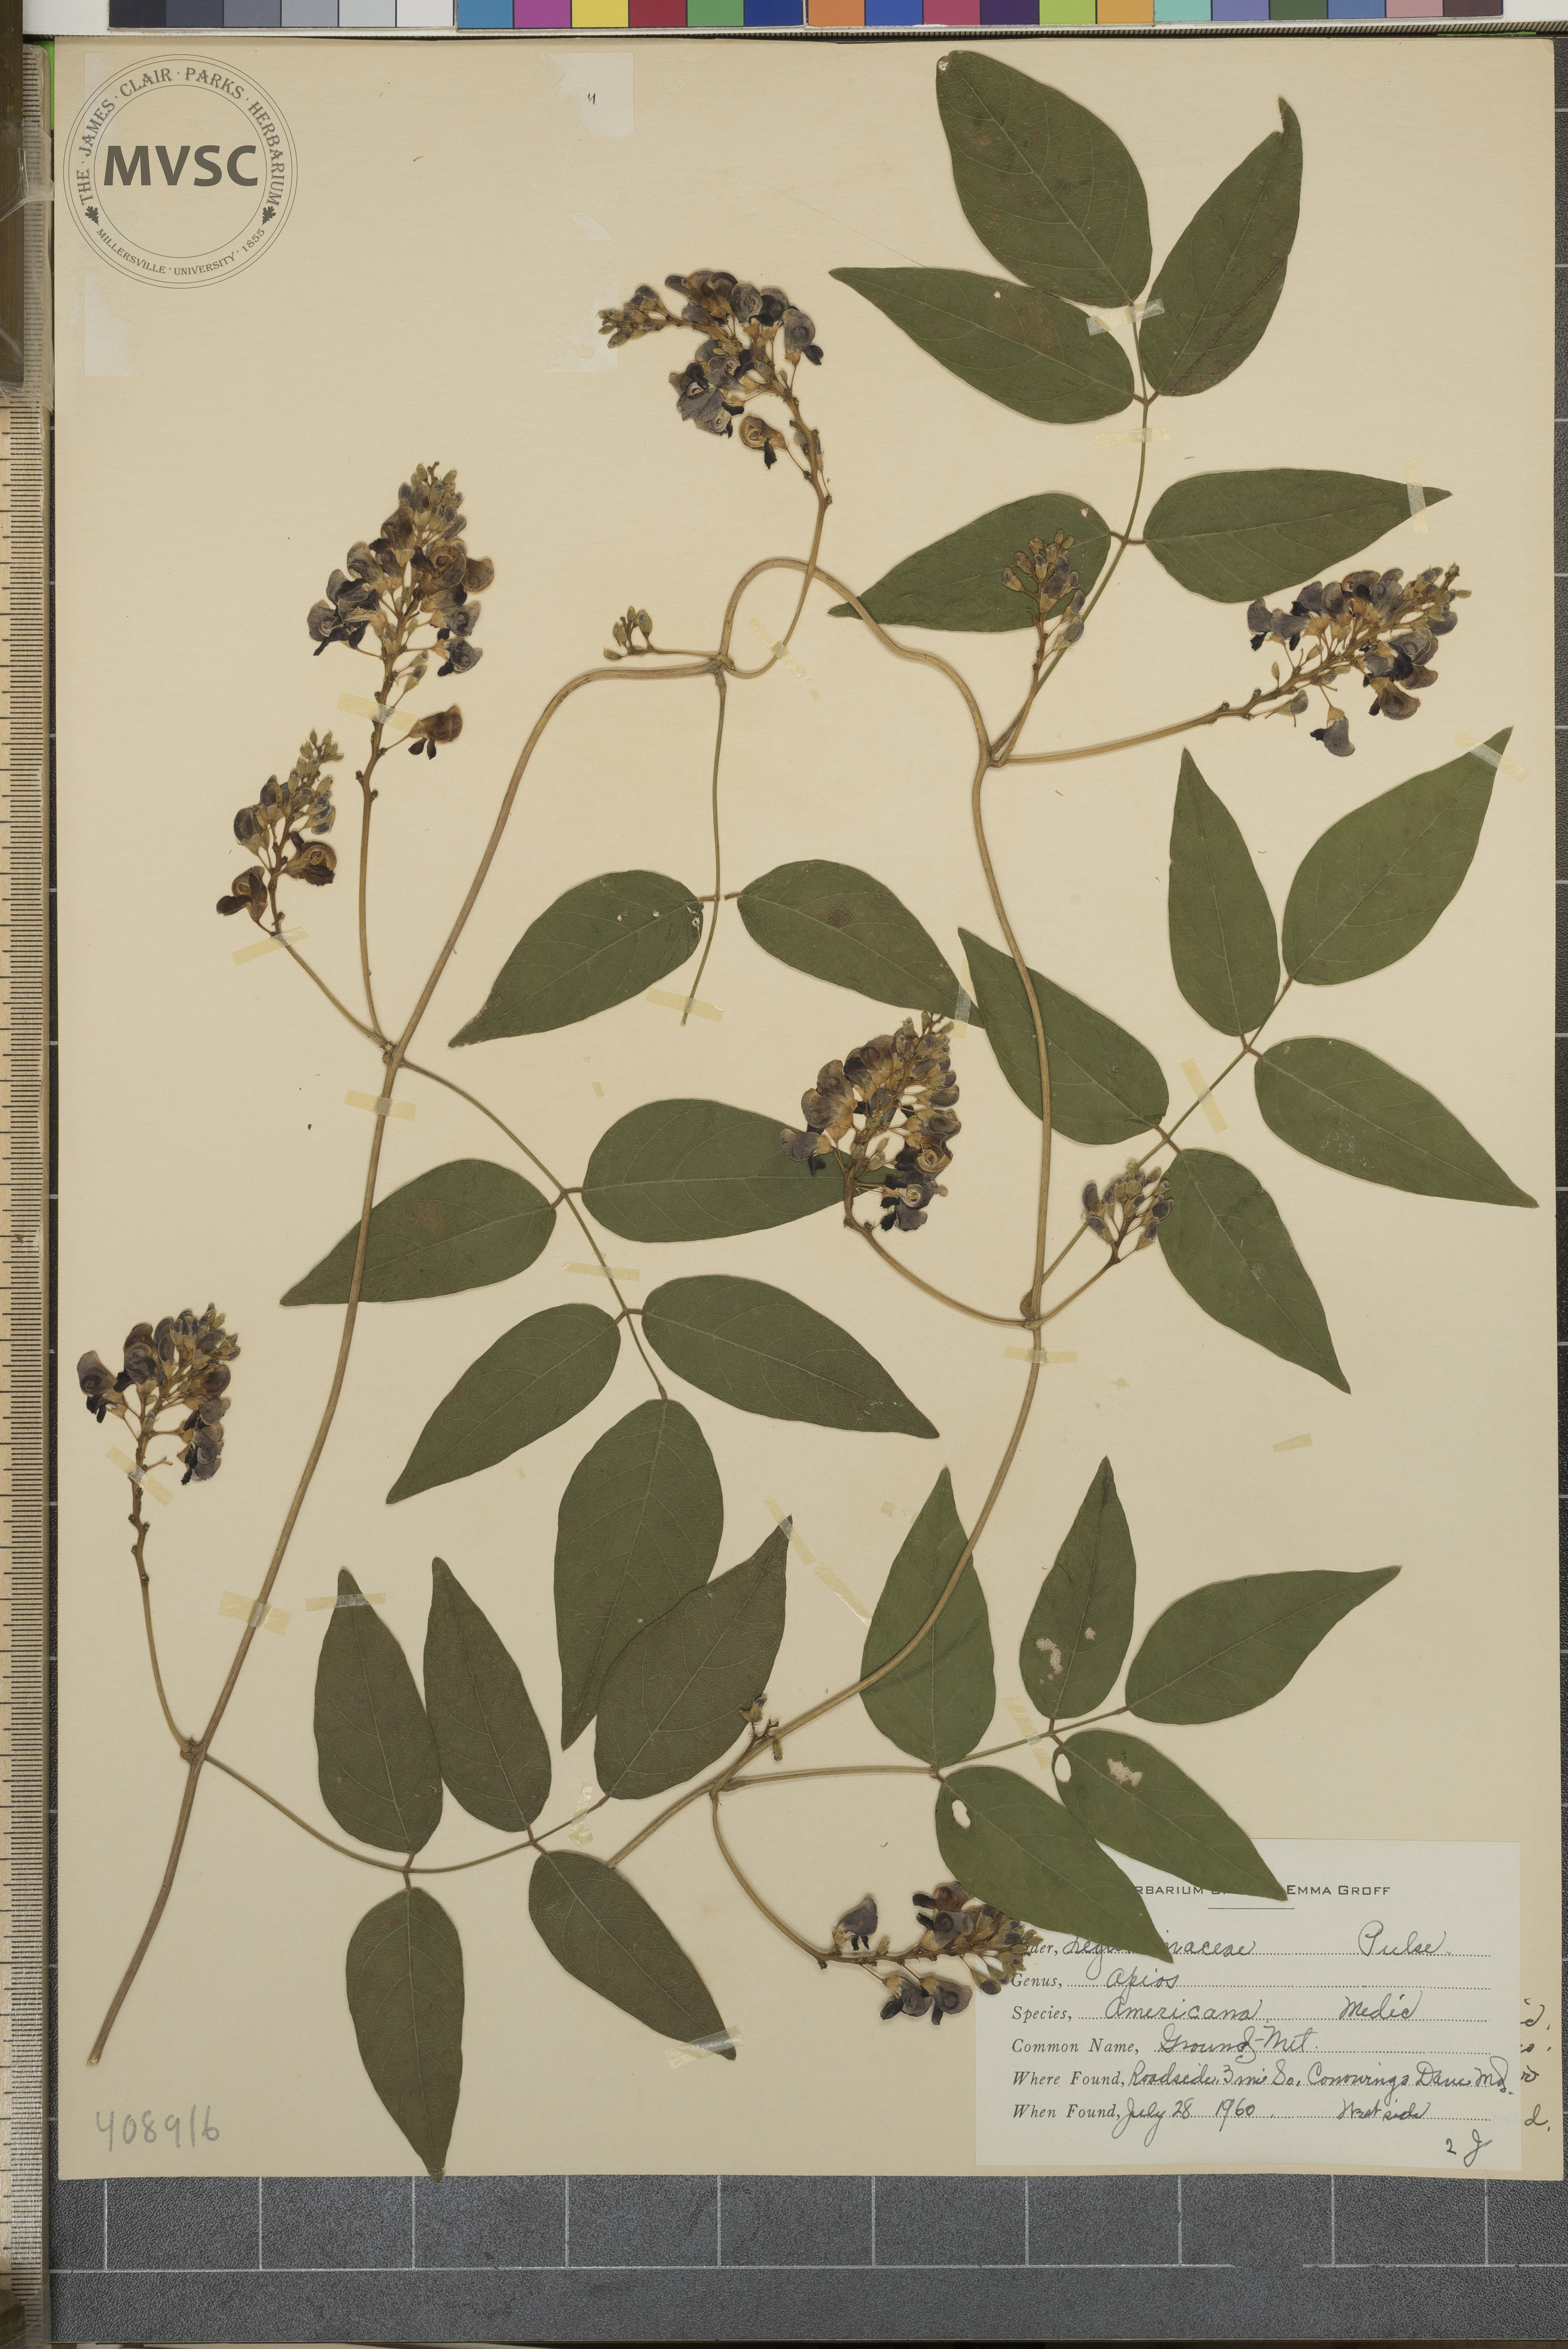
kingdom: Plantae
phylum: Tracheophyta
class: Magnoliopsida
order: Fabales
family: Fabaceae
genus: Apios
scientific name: Apios americana
